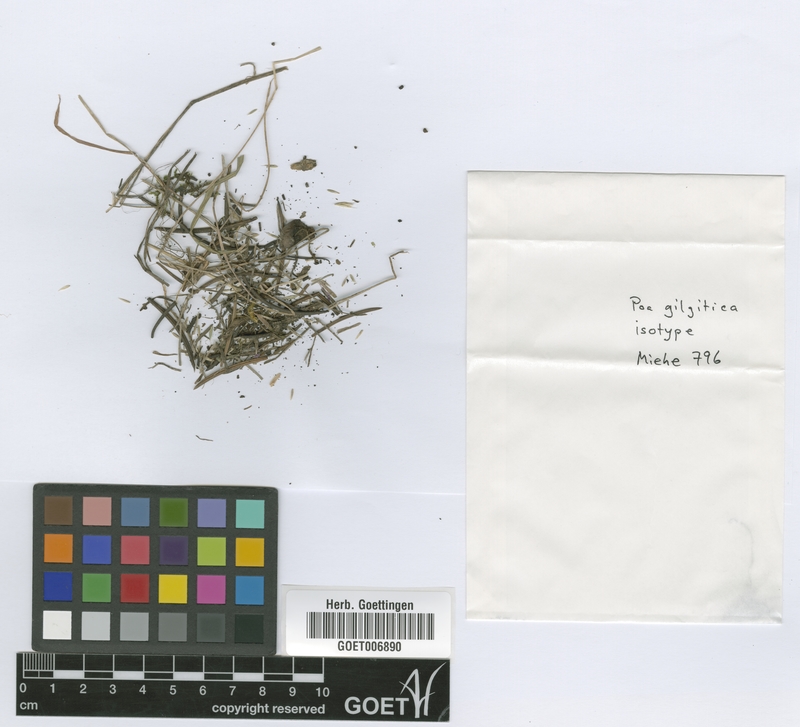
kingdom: Plantae
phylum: Tracheophyta
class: Liliopsida
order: Poales
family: Poaceae
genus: Poa
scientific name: Poa polycolea
